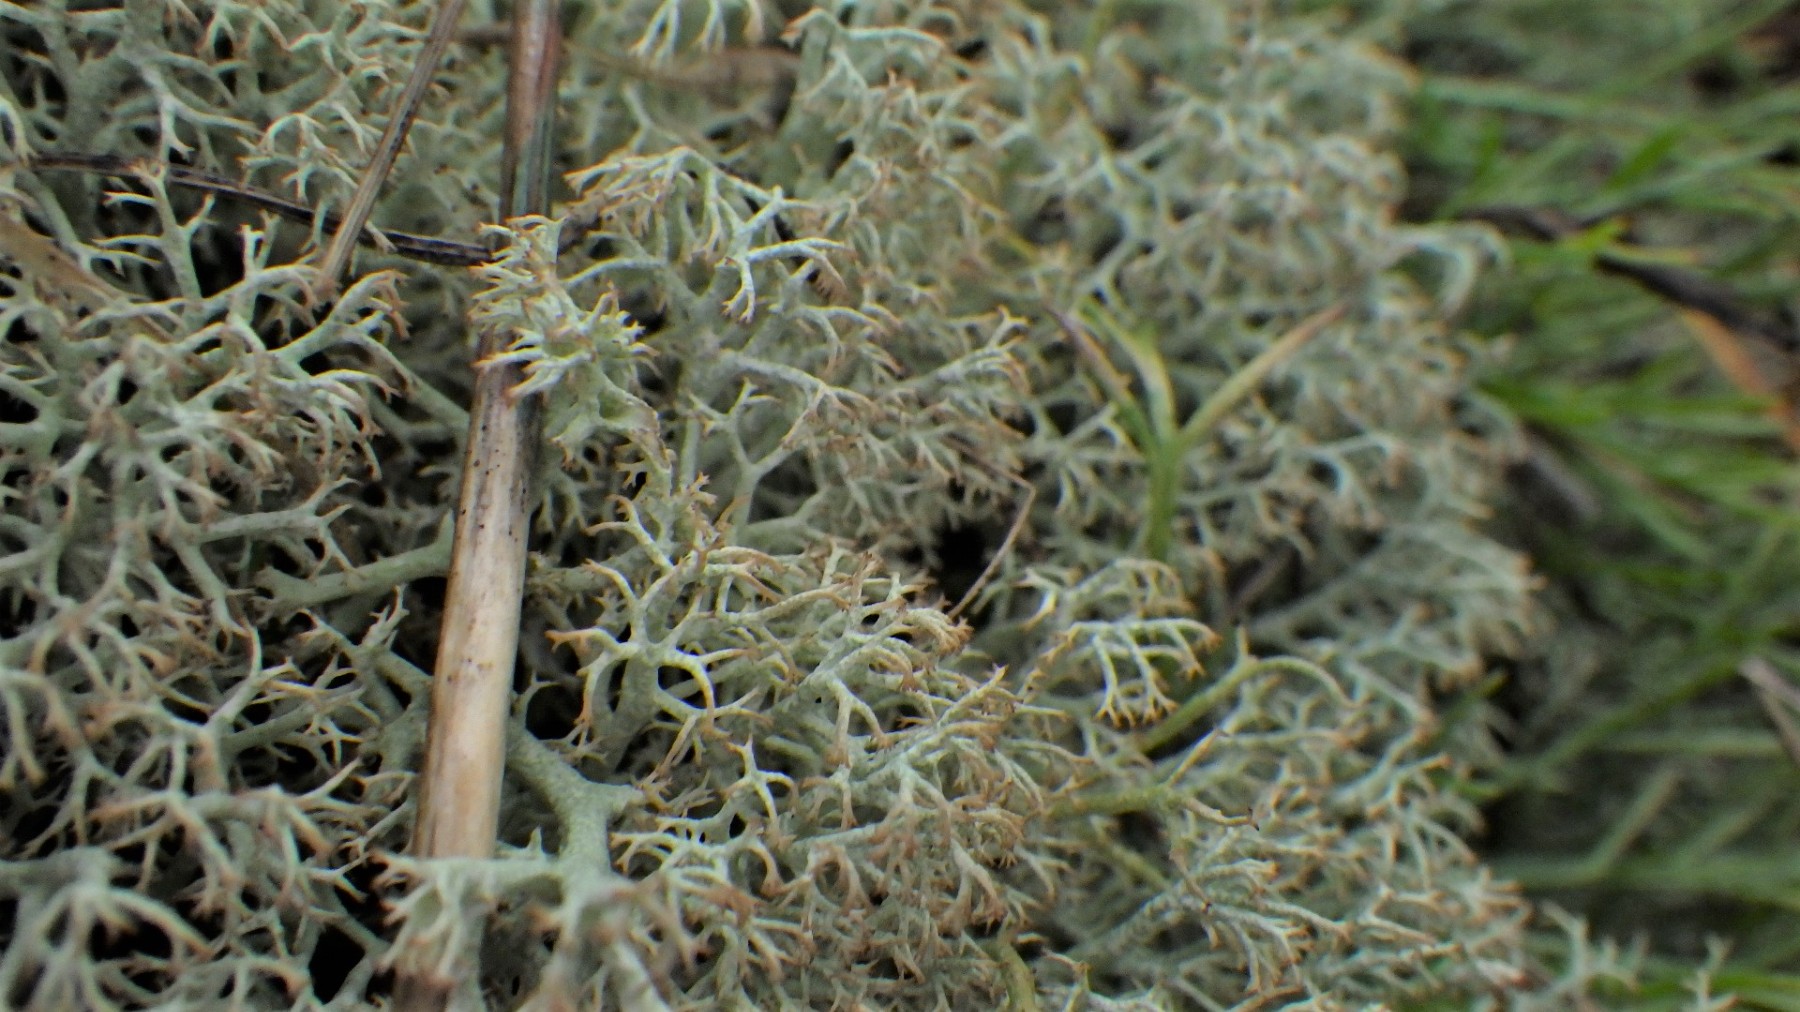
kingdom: Fungi
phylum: Ascomycota
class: Lecanoromycetes
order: Lecanorales
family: Cladoniaceae
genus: Cladonia
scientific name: Cladonia ciliata
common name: spinkel rensdyrlav
